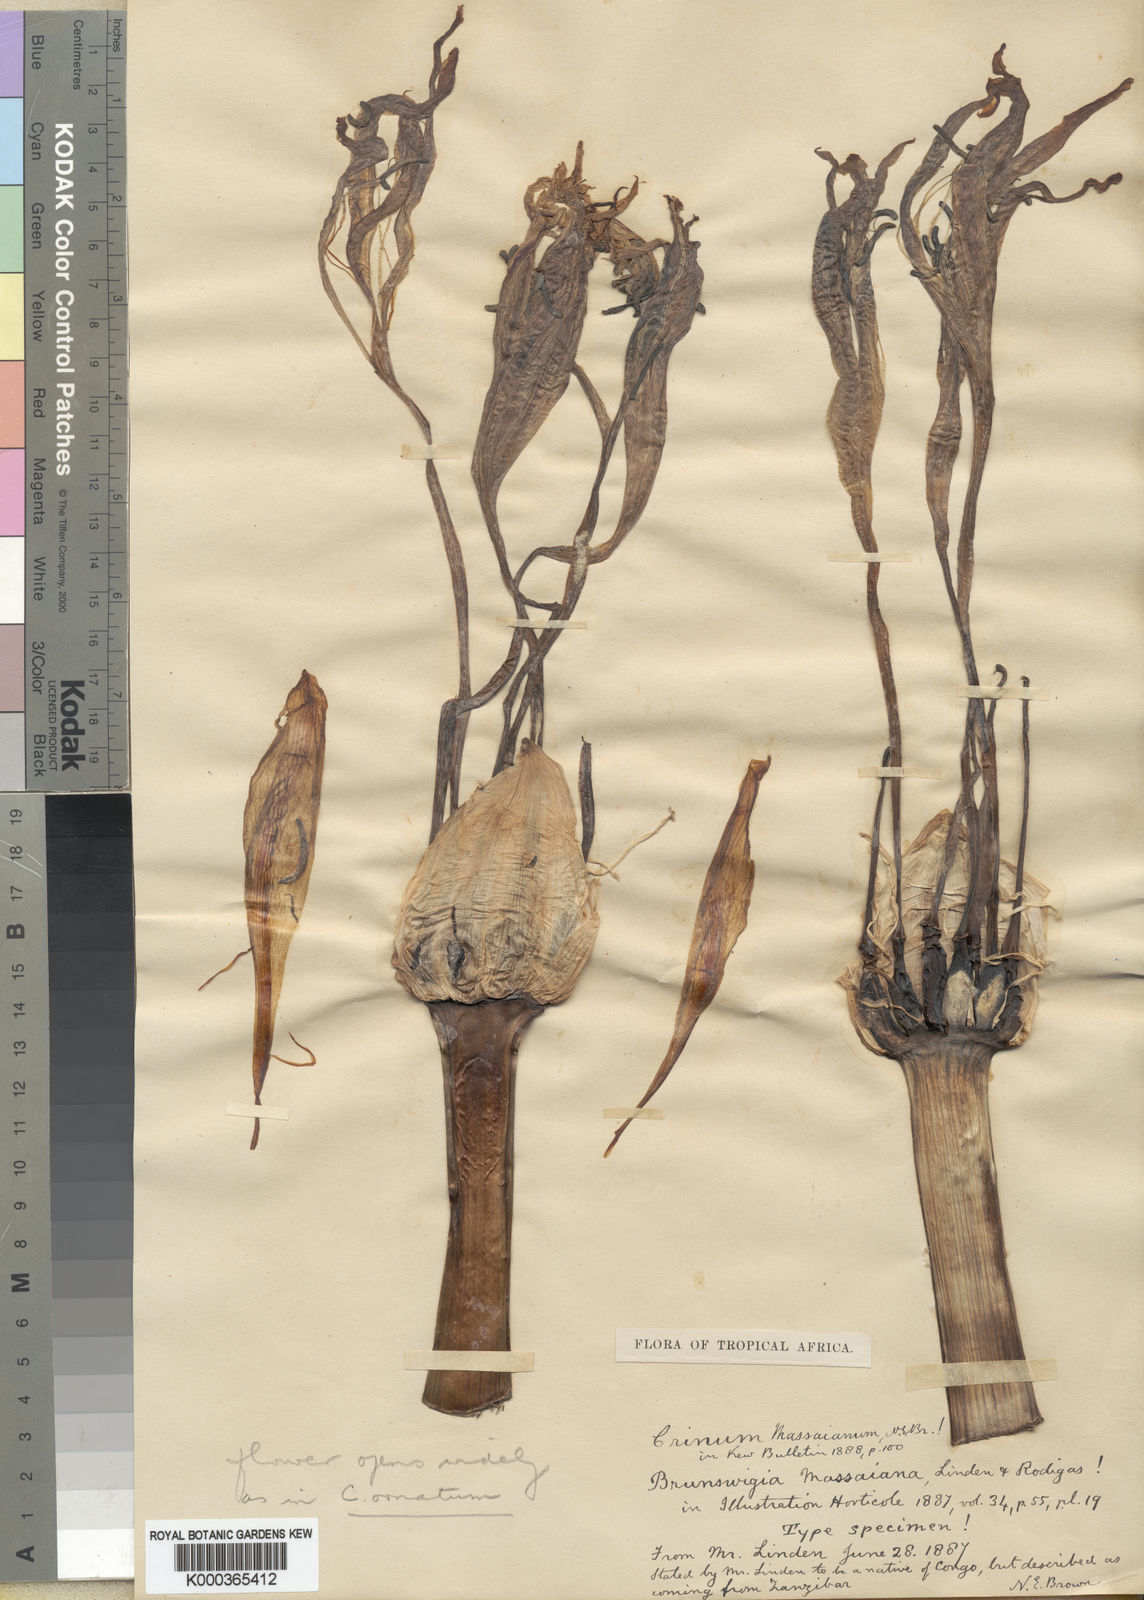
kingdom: Plantae
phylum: Tracheophyta
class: Liliopsida
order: Asparagales
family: Amaryllidaceae
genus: Crinum
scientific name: Crinum ornatum
